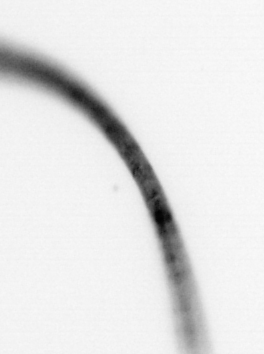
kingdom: Chromista
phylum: Ochrophyta
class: Bacillariophyceae
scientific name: Bacillariophyceae
